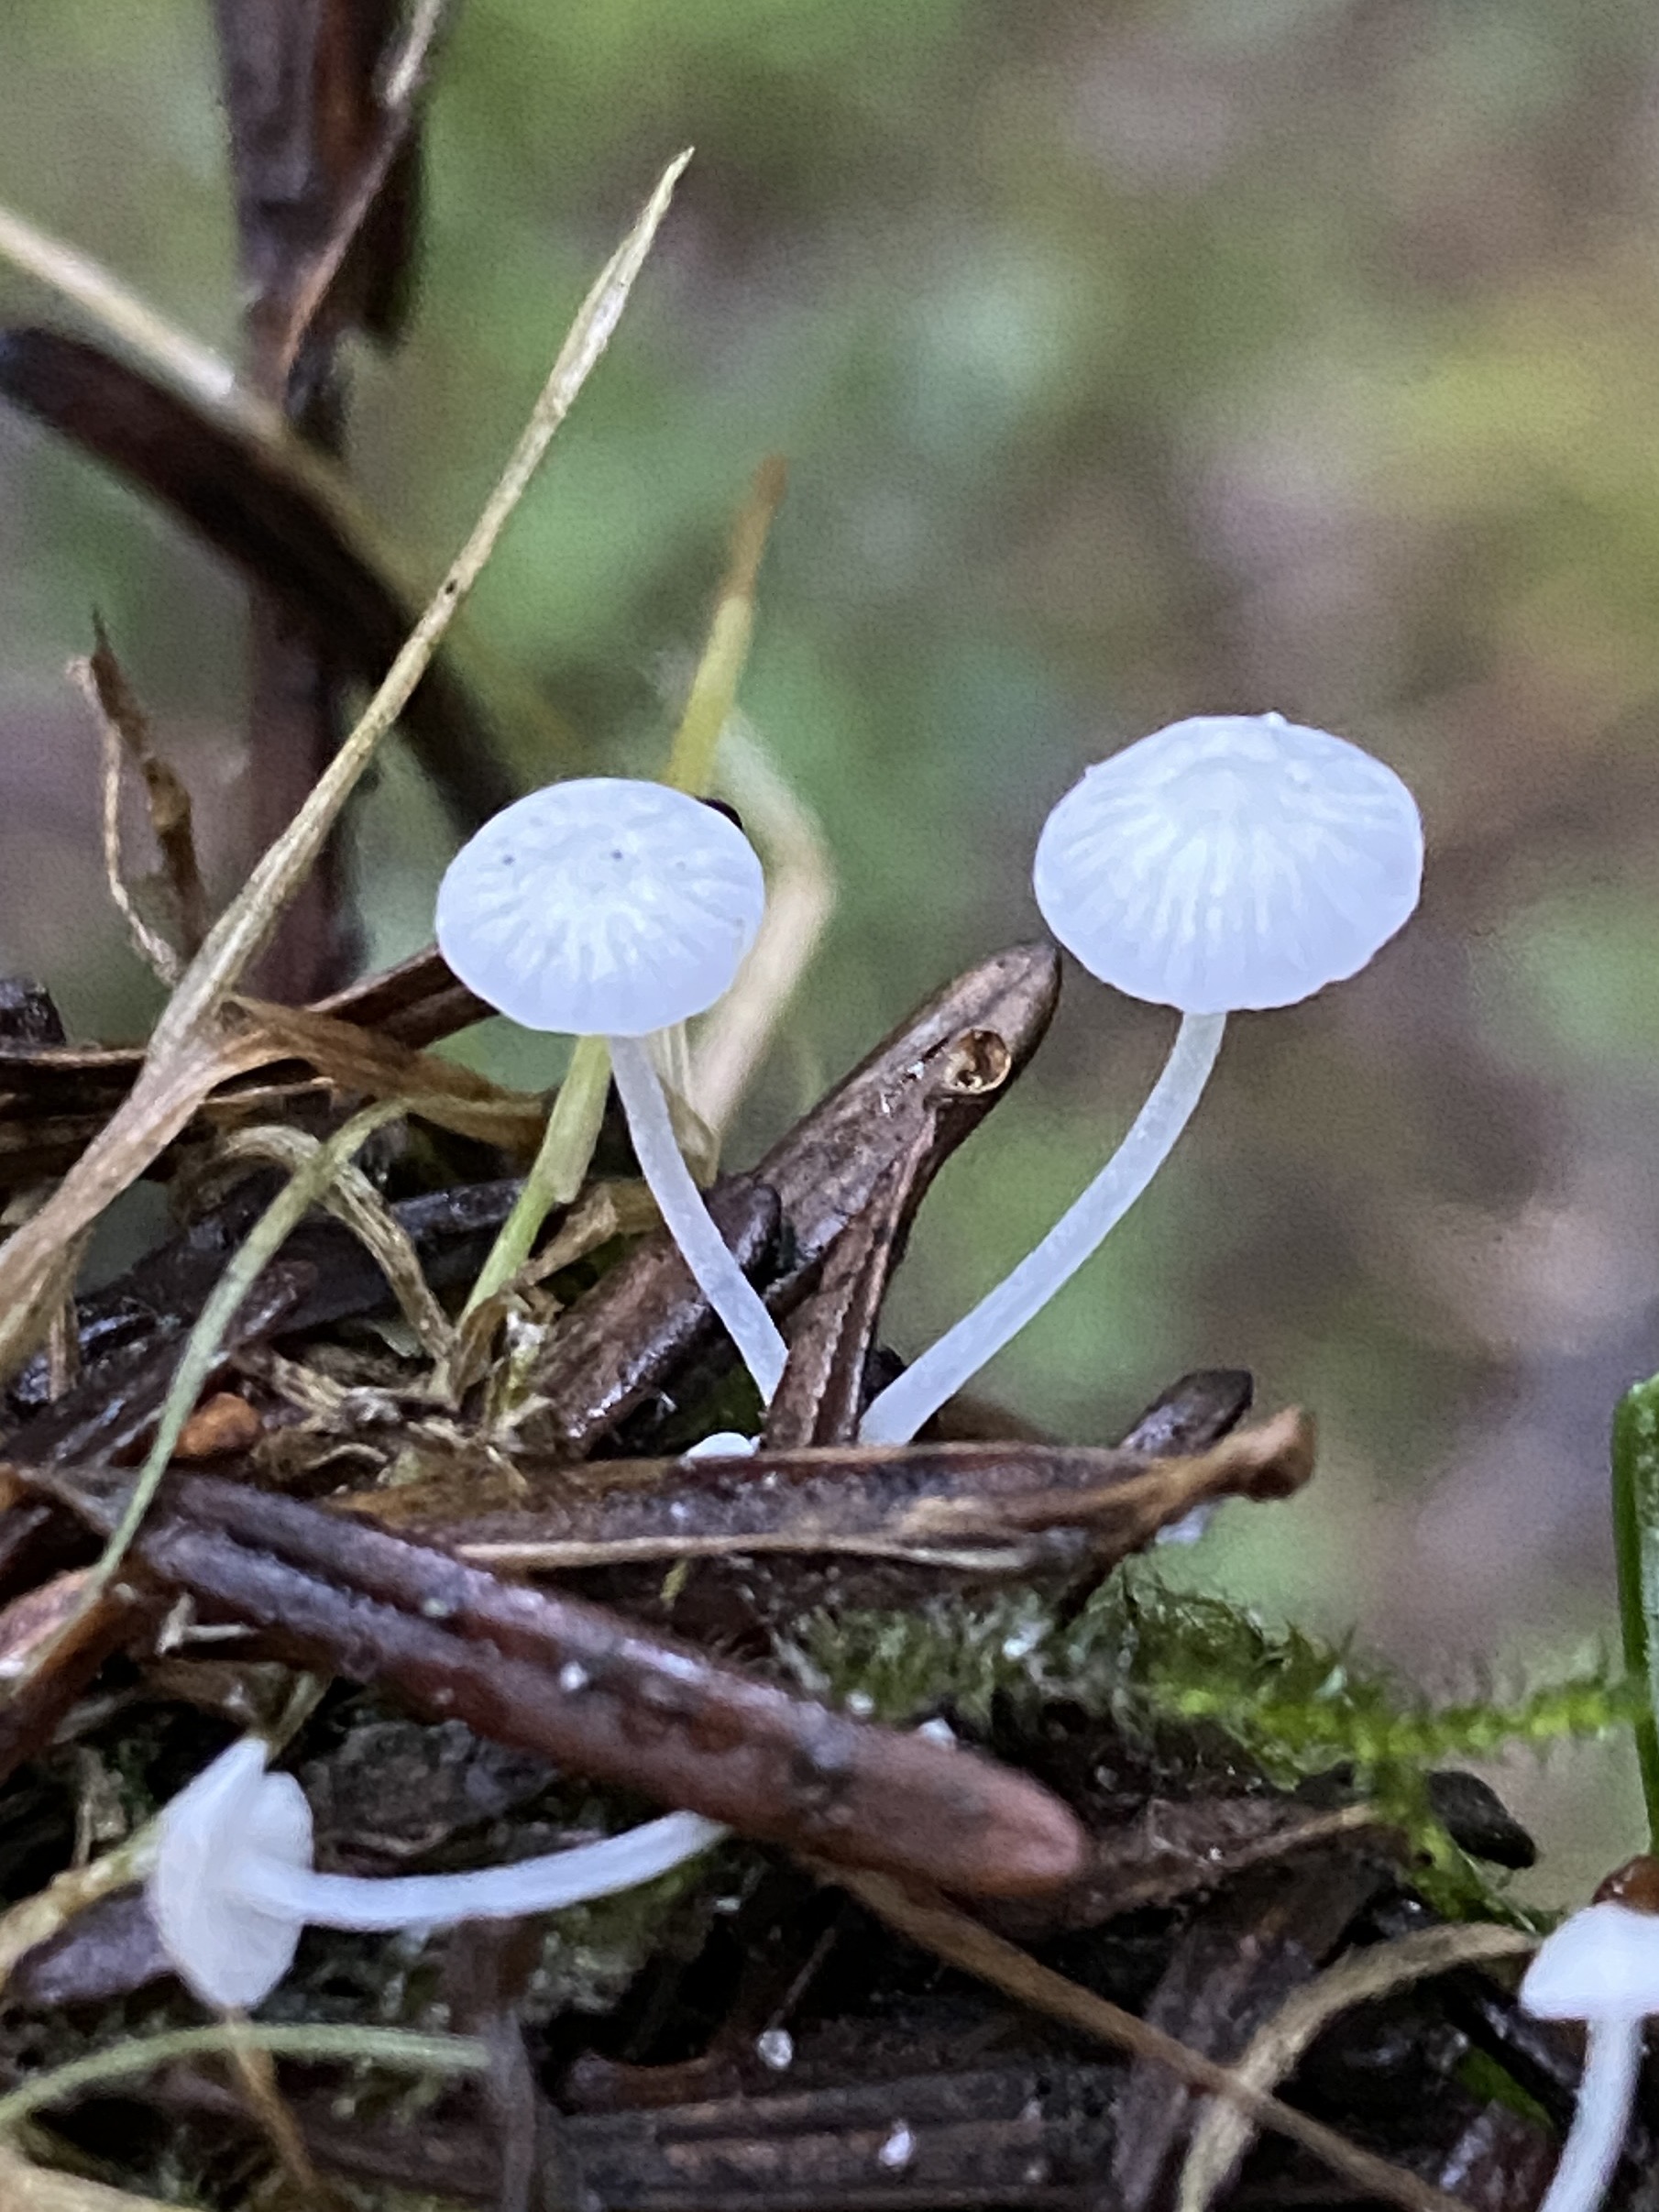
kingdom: Fungi
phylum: Basidiomycota
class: Agaricomycetes
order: Agaricales
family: Mycenaceae
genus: Hemimycena
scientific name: Hemimycena lactea
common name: mælkehvid huesvamp
